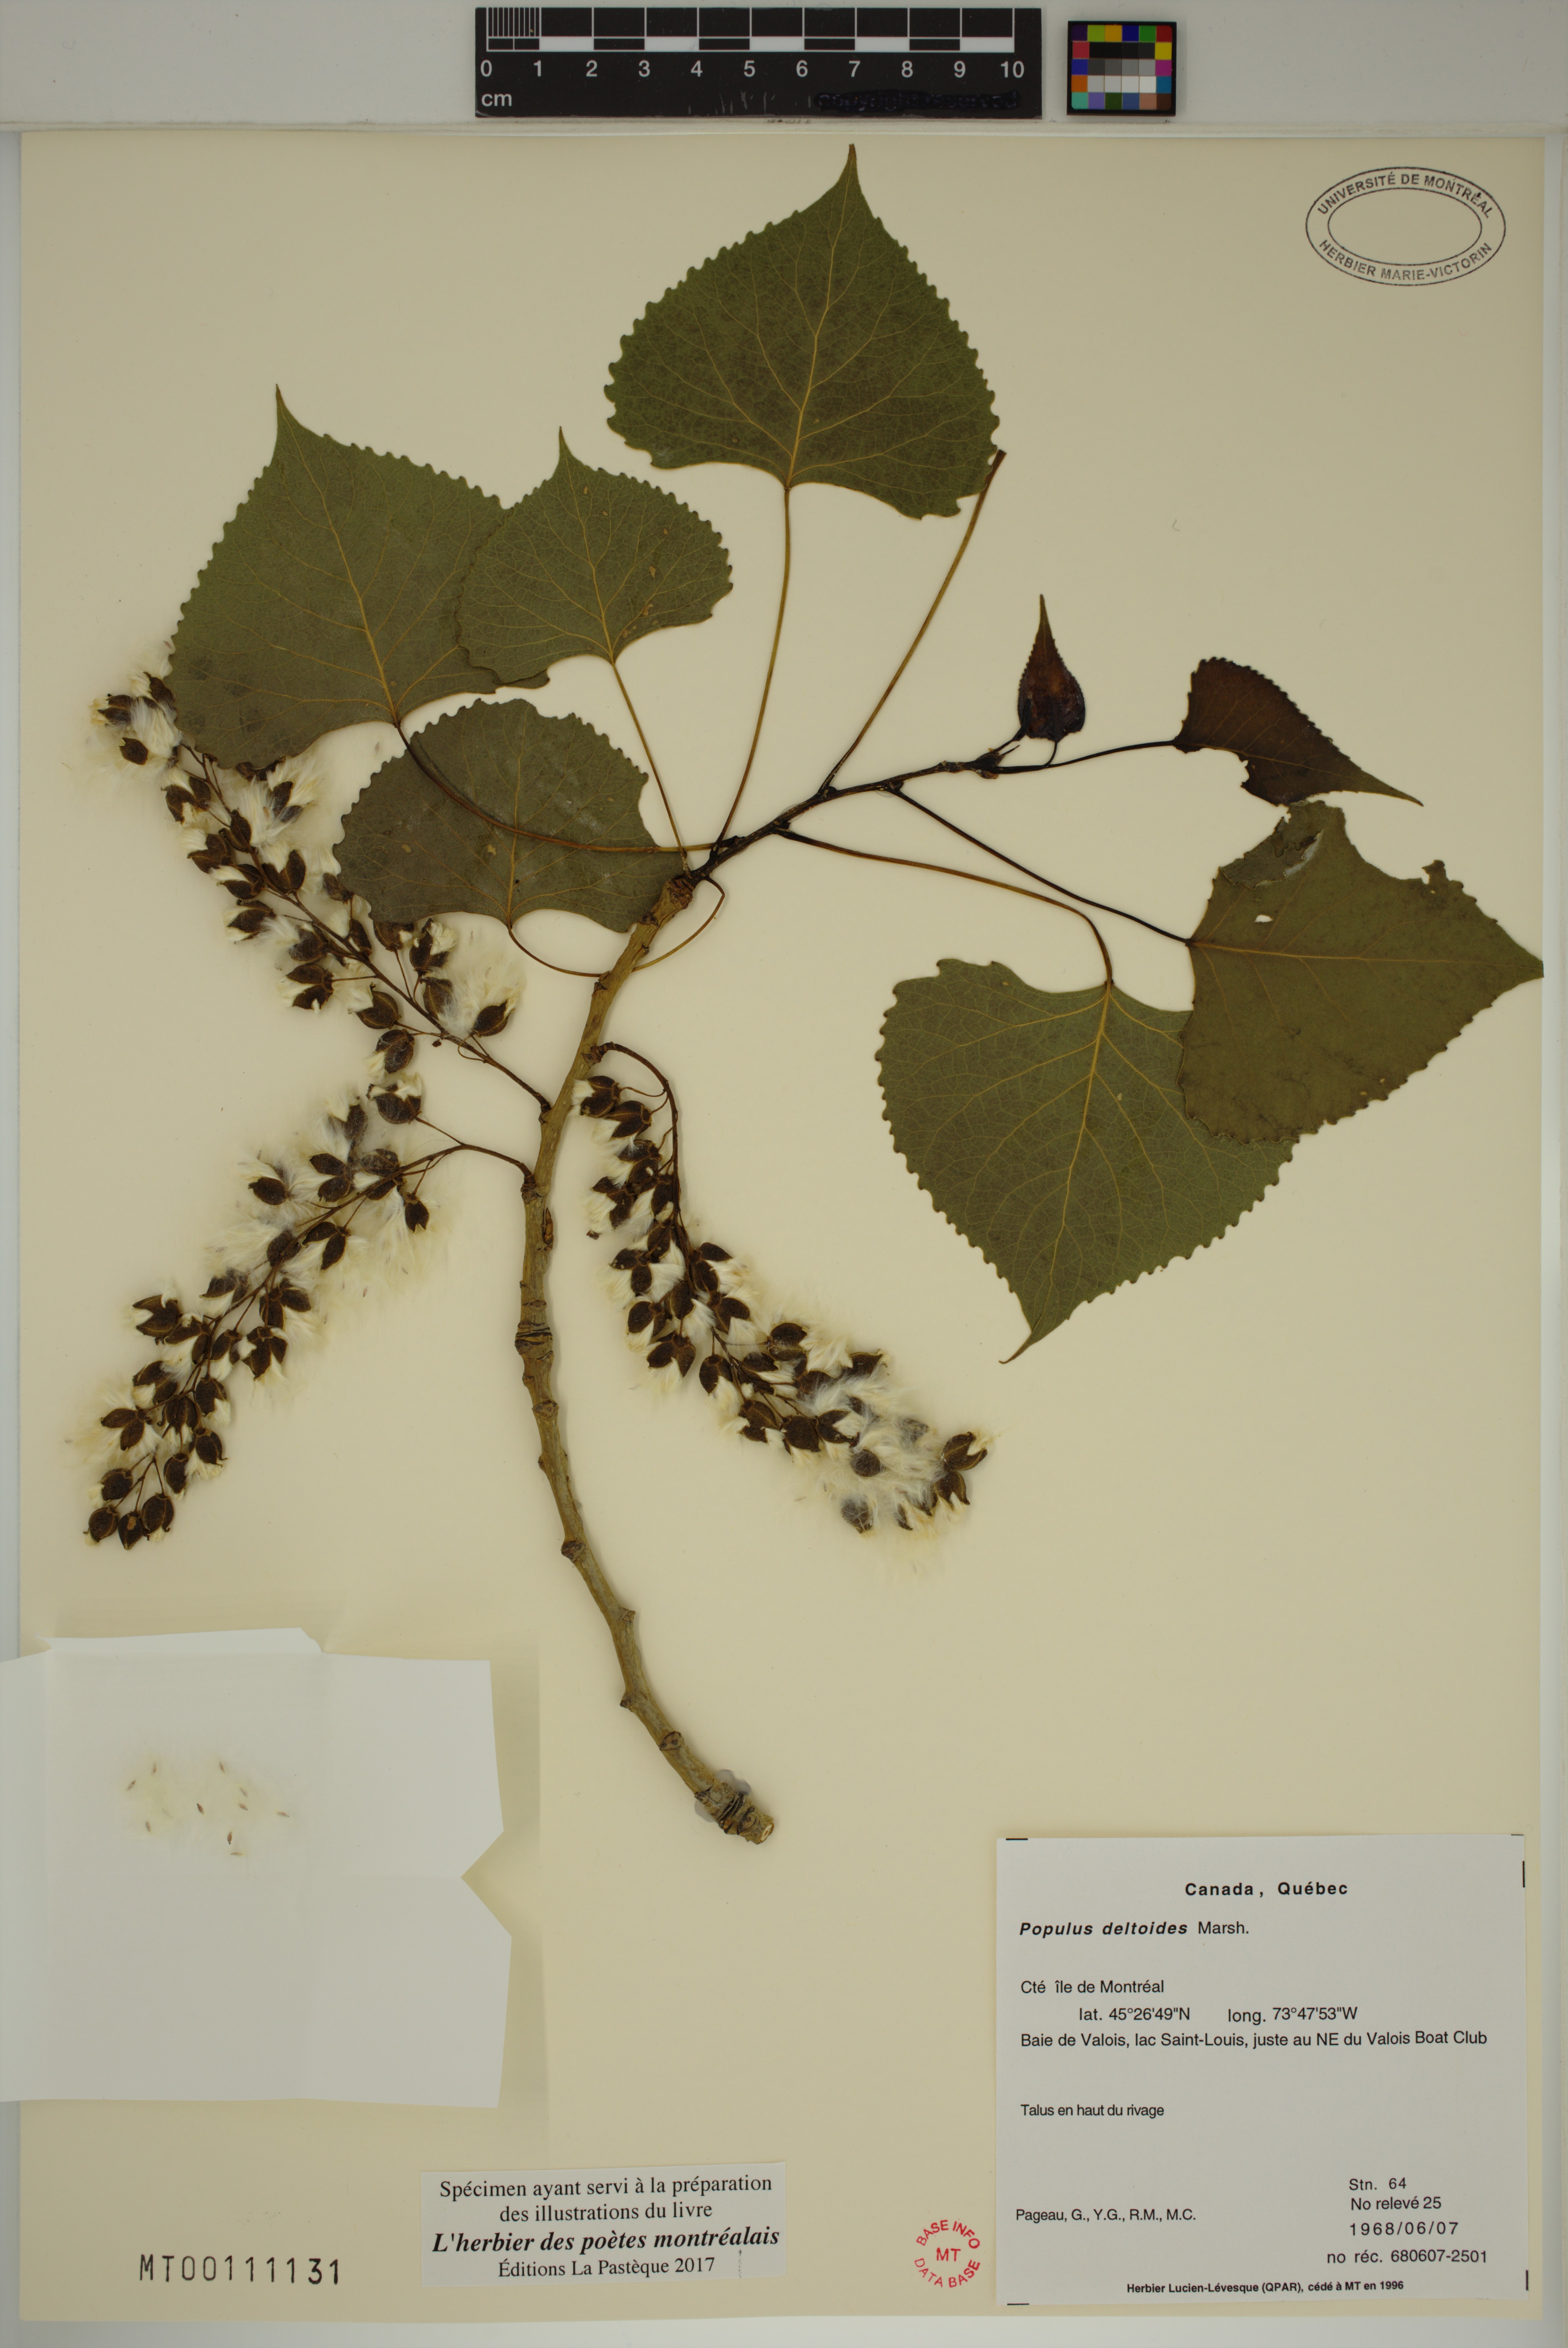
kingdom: Plantae
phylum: Tracheophyta
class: Magnoliopsida
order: Malpighiales
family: Salicaceae
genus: Populus
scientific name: Populus deltoides
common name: Eastern cottonwood
